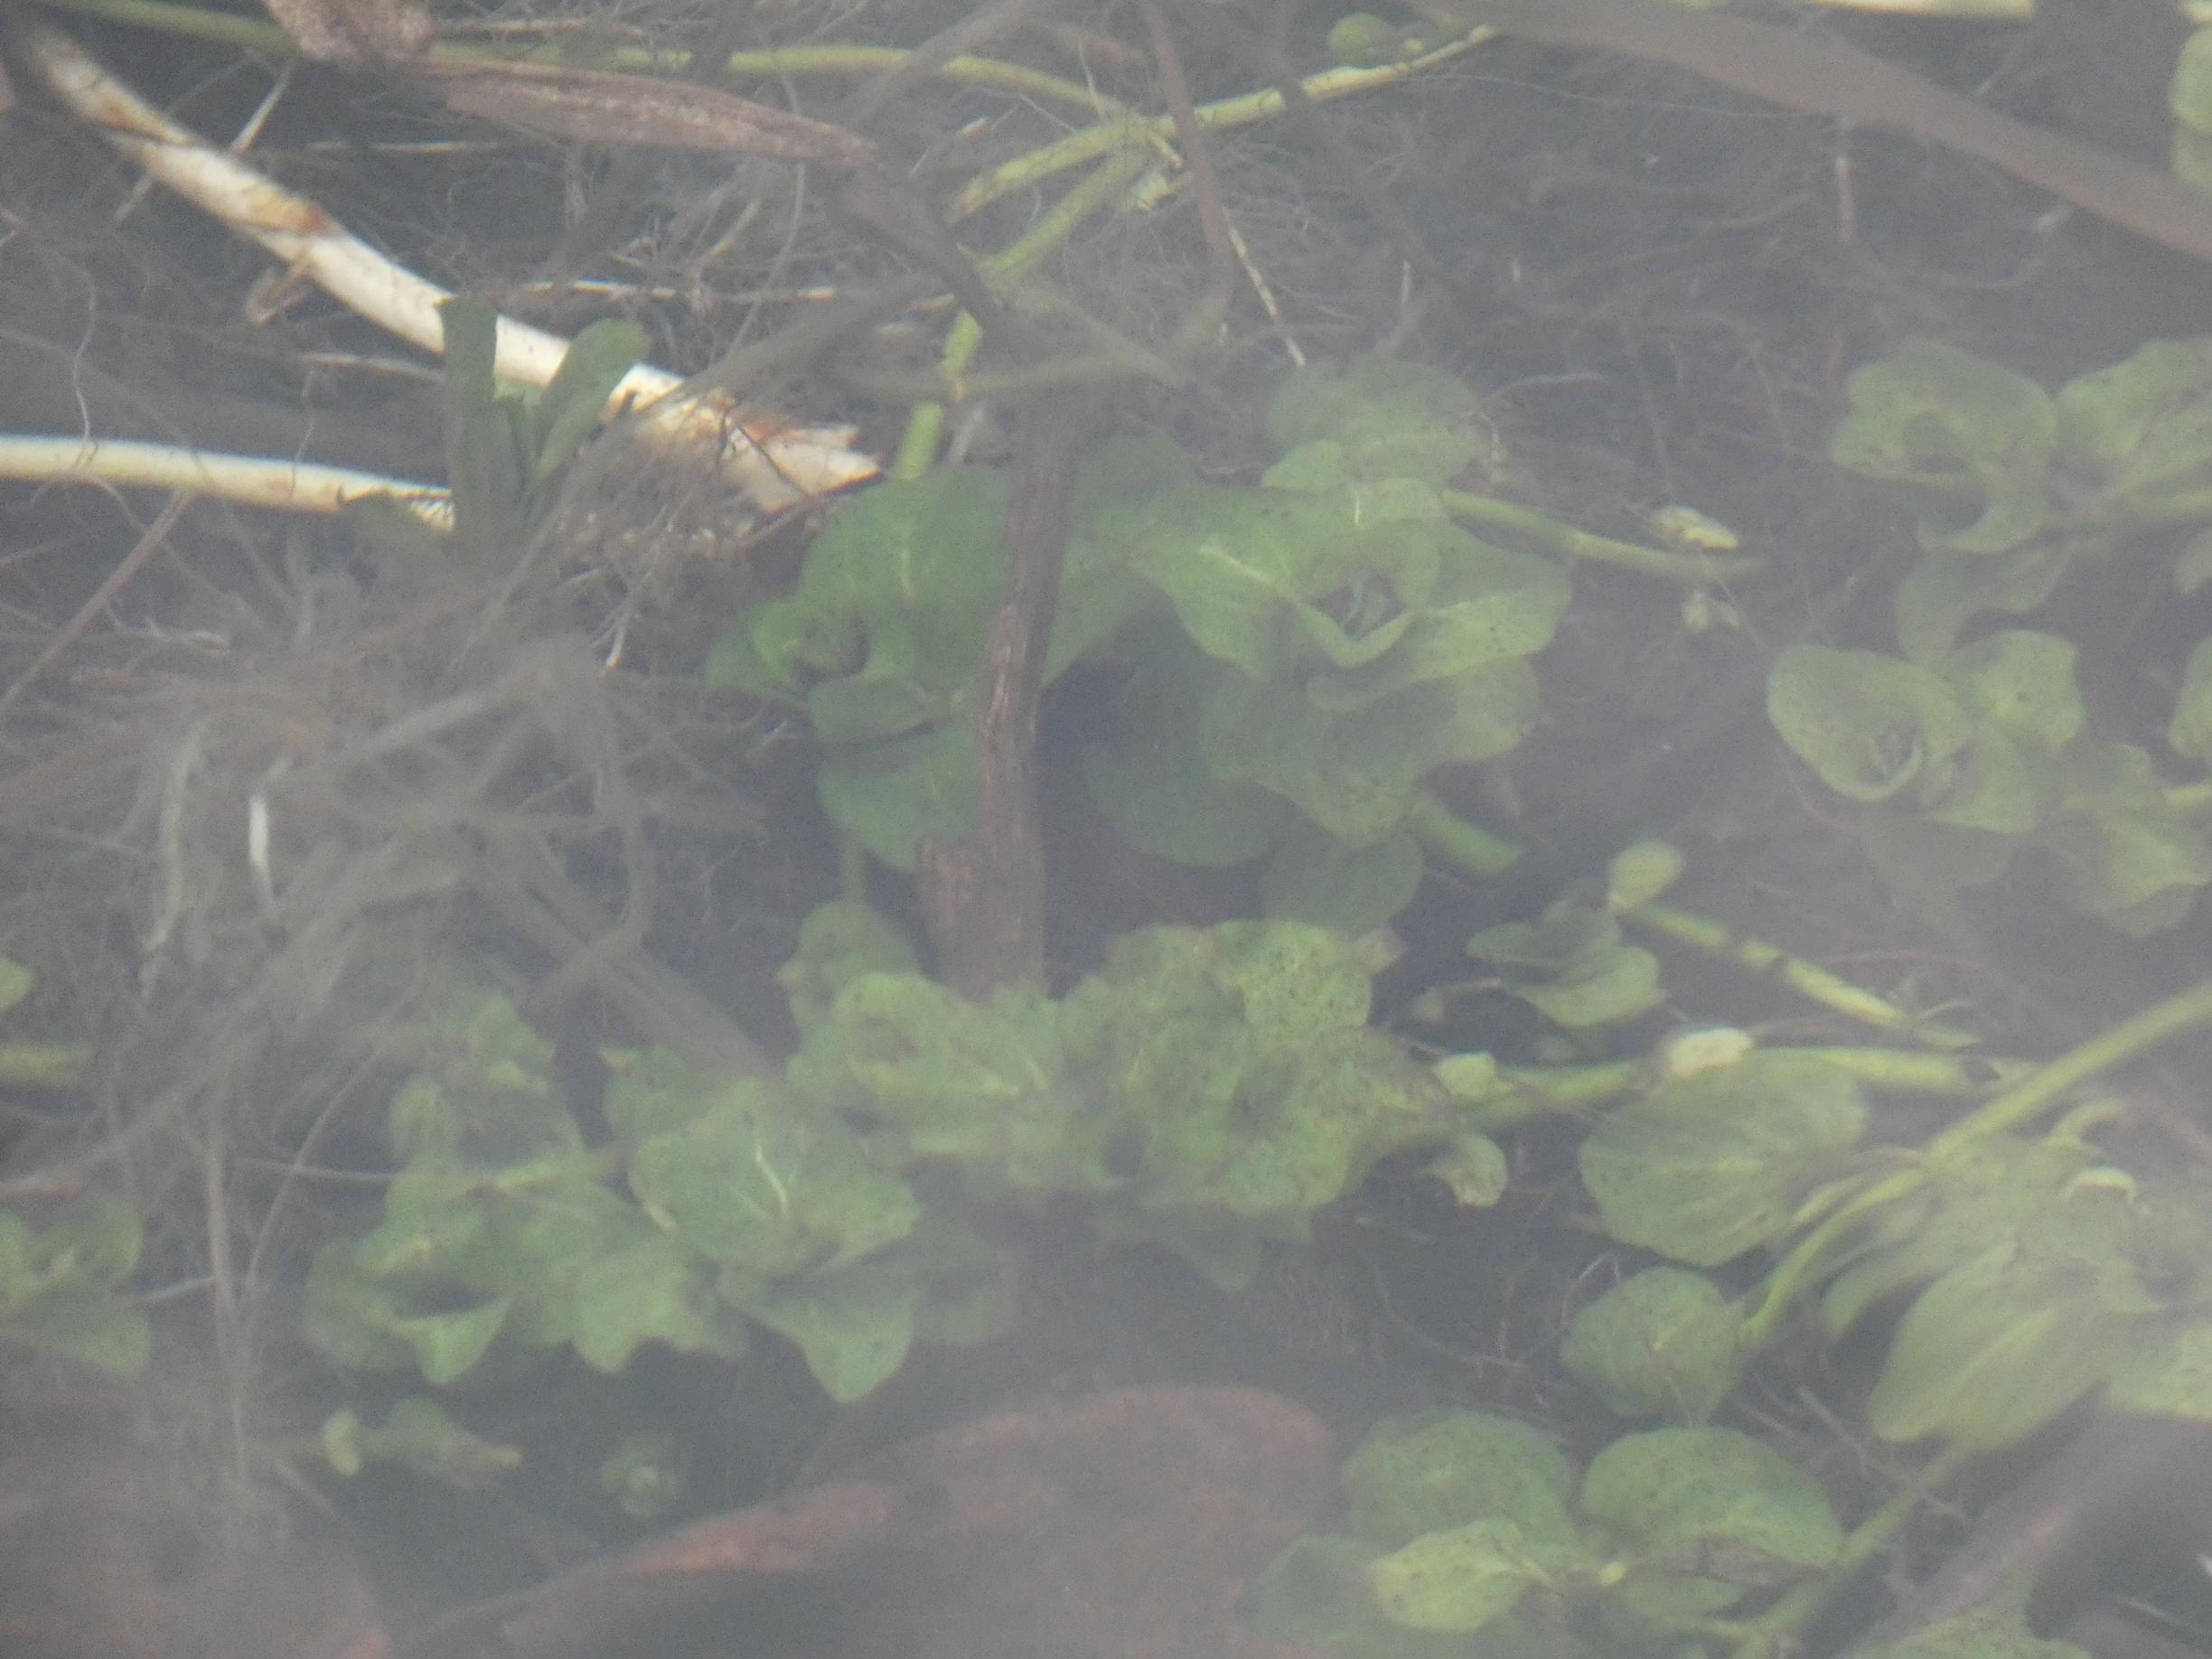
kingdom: Plantae
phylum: Tracheophyta
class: Magnoliopsida
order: Lamiales
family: Plantaginaceae
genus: Veronica
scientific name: Veronica beccabunga
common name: Tykbladet ærenpris
